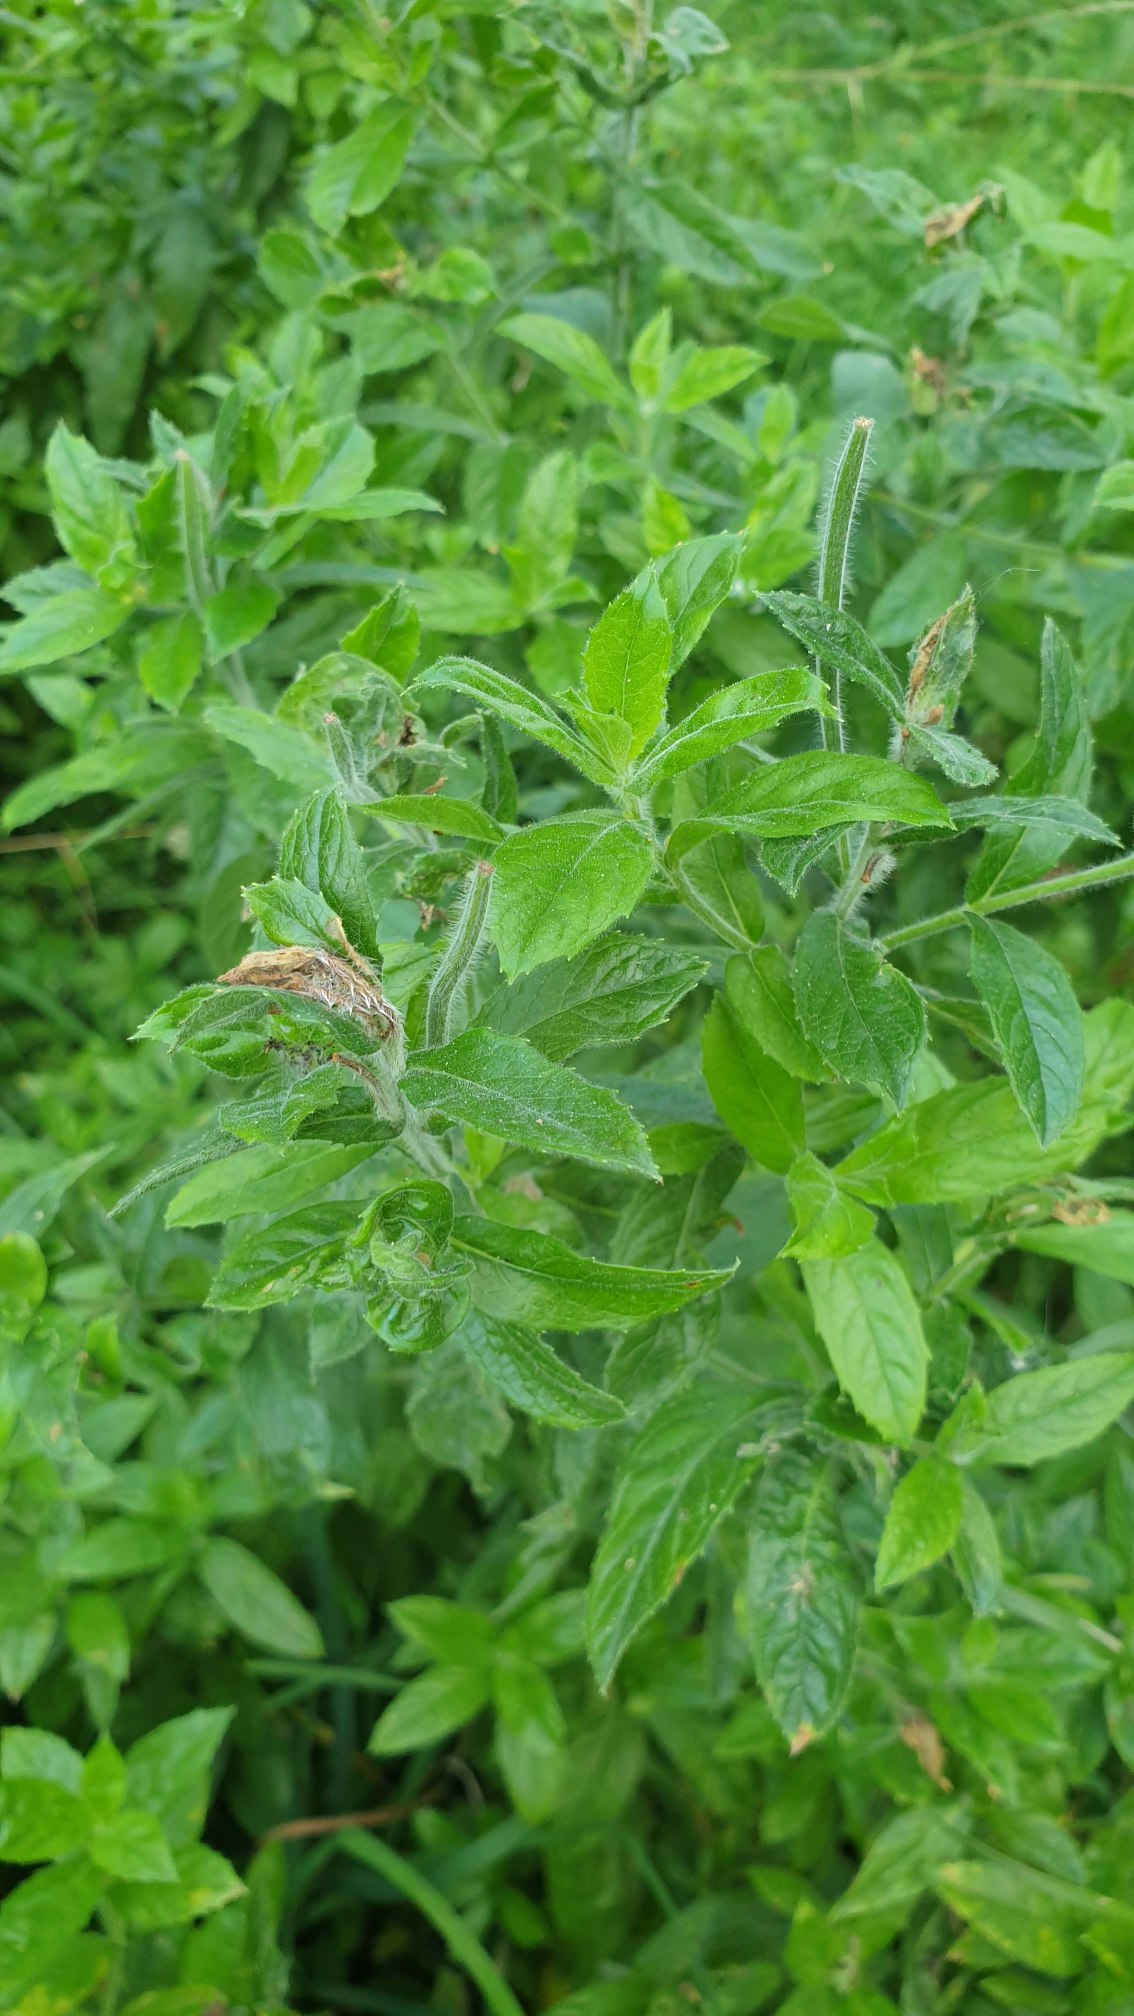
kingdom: Plantae
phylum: Tracheophyta
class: Magnoliopsida
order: Myrtales
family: Onagraceae
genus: Epilobium
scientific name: Epilobium hirsutum
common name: Lådden dueurt
